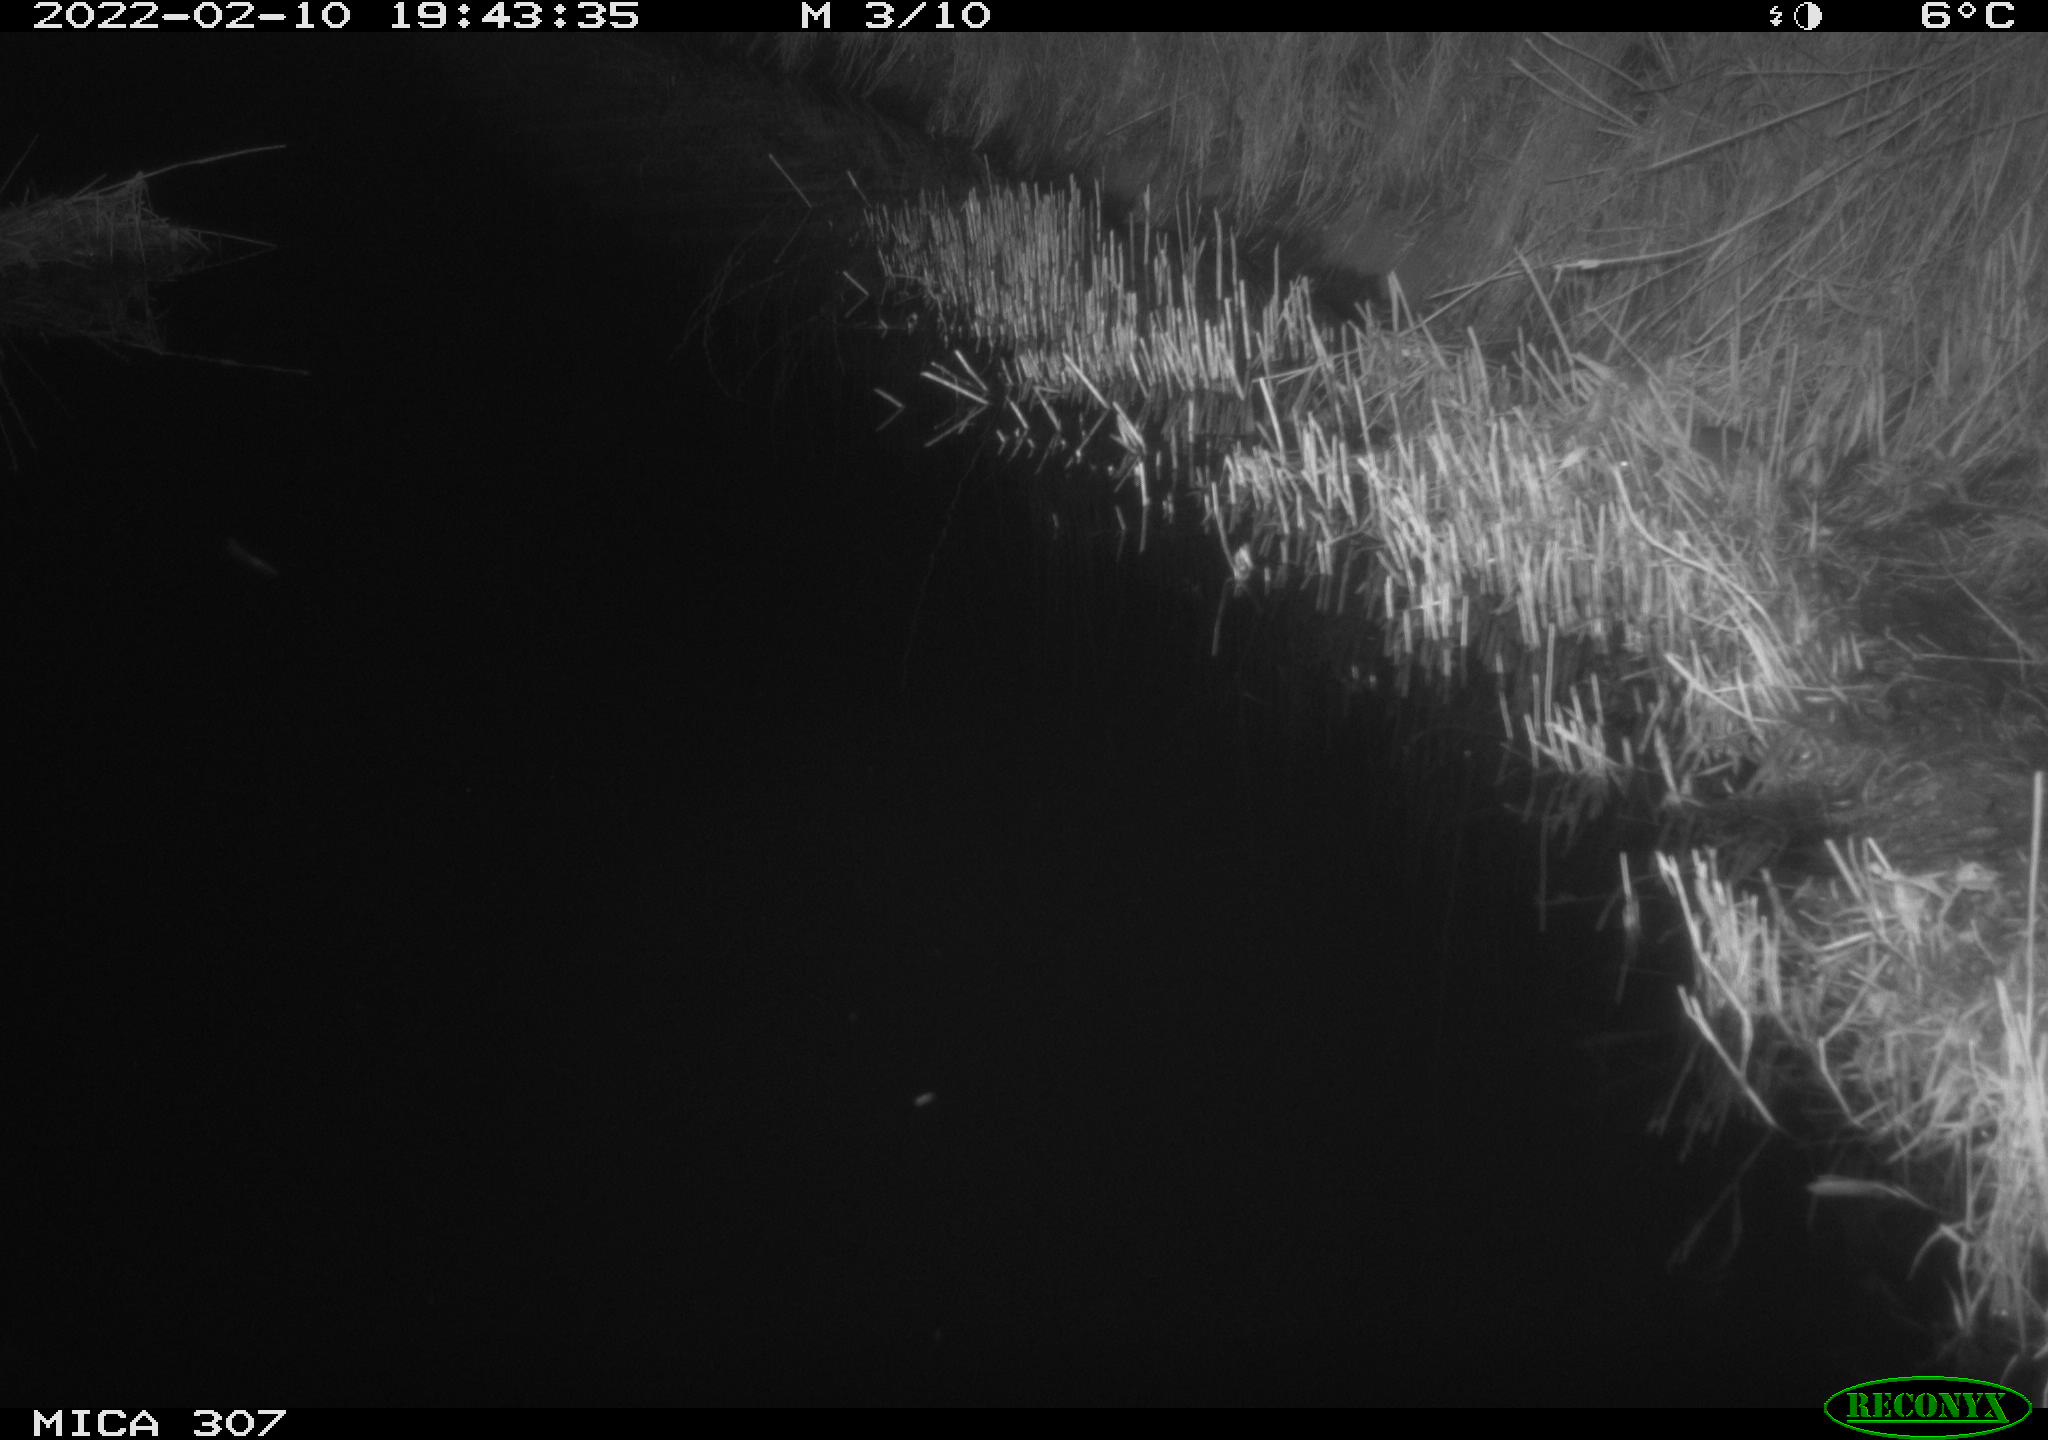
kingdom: Animalia
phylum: Chordata
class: Mammalia
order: Rodentia
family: Muridae
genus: Rattus
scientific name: Rattus norvegicus
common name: Brown rat
